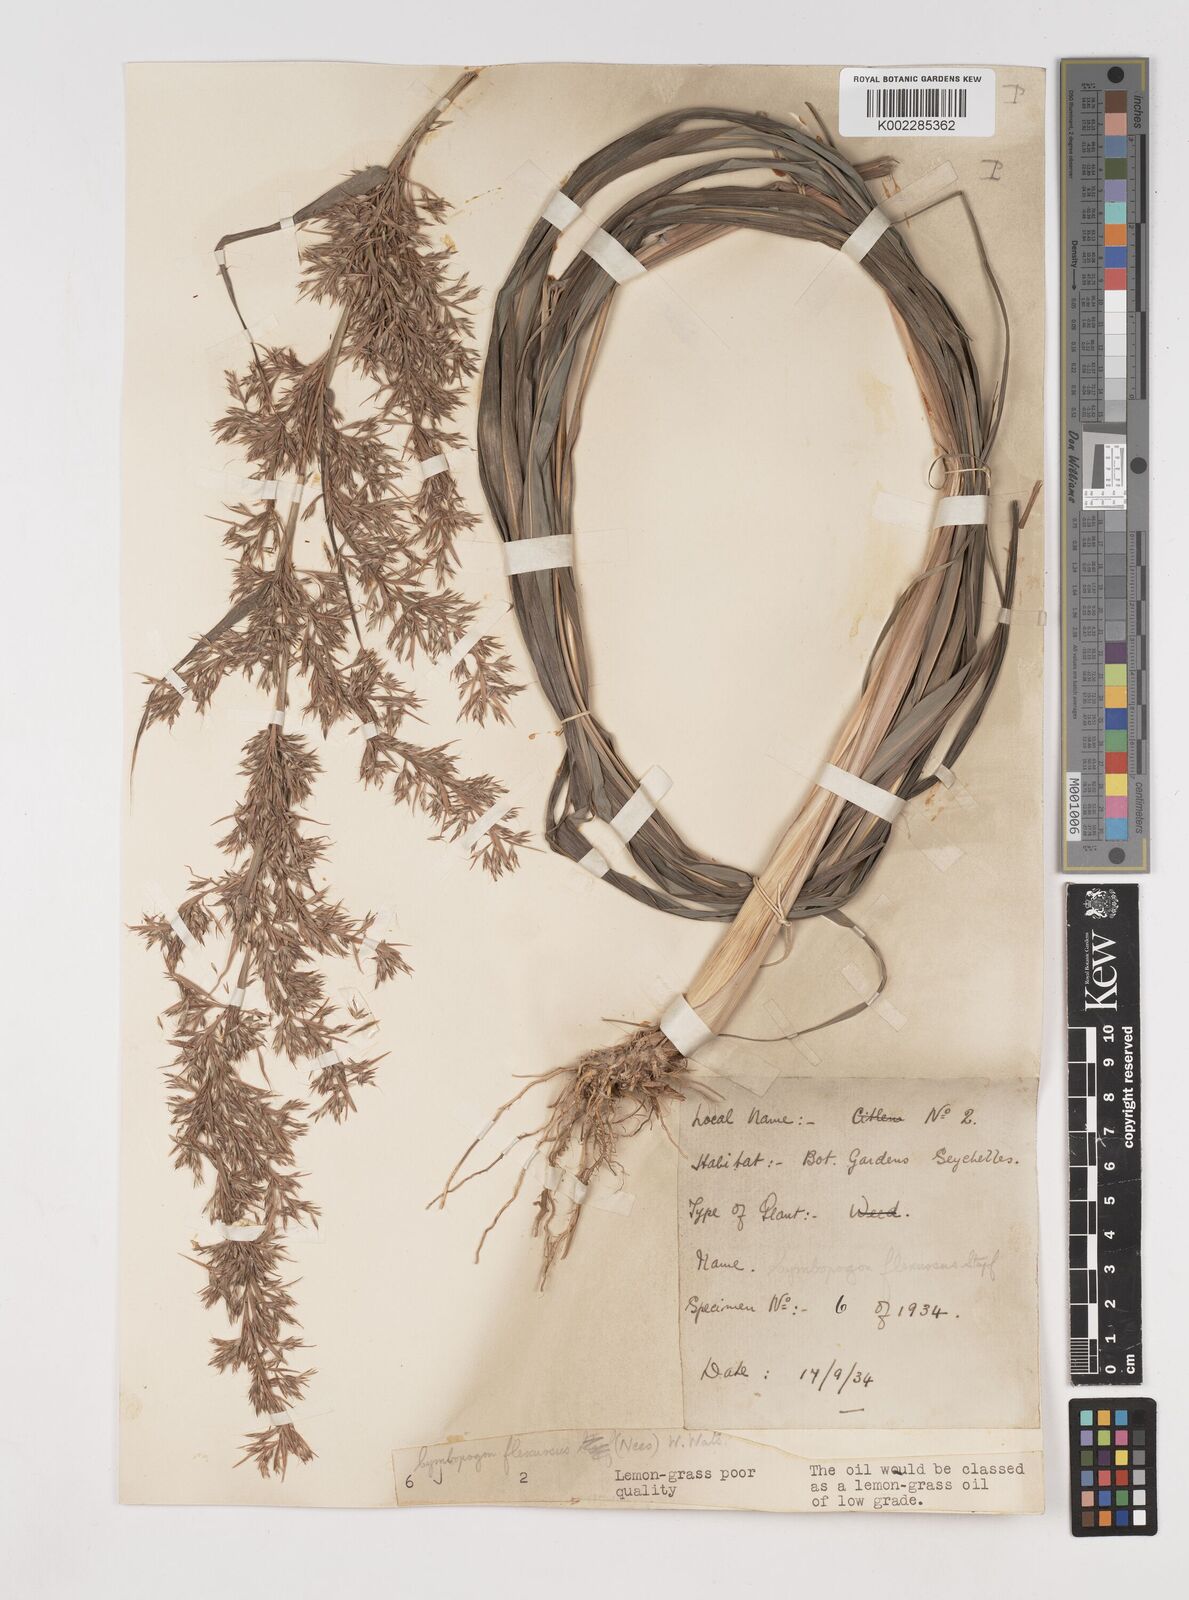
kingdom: Plantae
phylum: Tracheophyta
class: Liliopsida
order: Poales
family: Poaceae
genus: Cymbopogon
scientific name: Cymbopogon flexuosus
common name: East indian lemongrass
